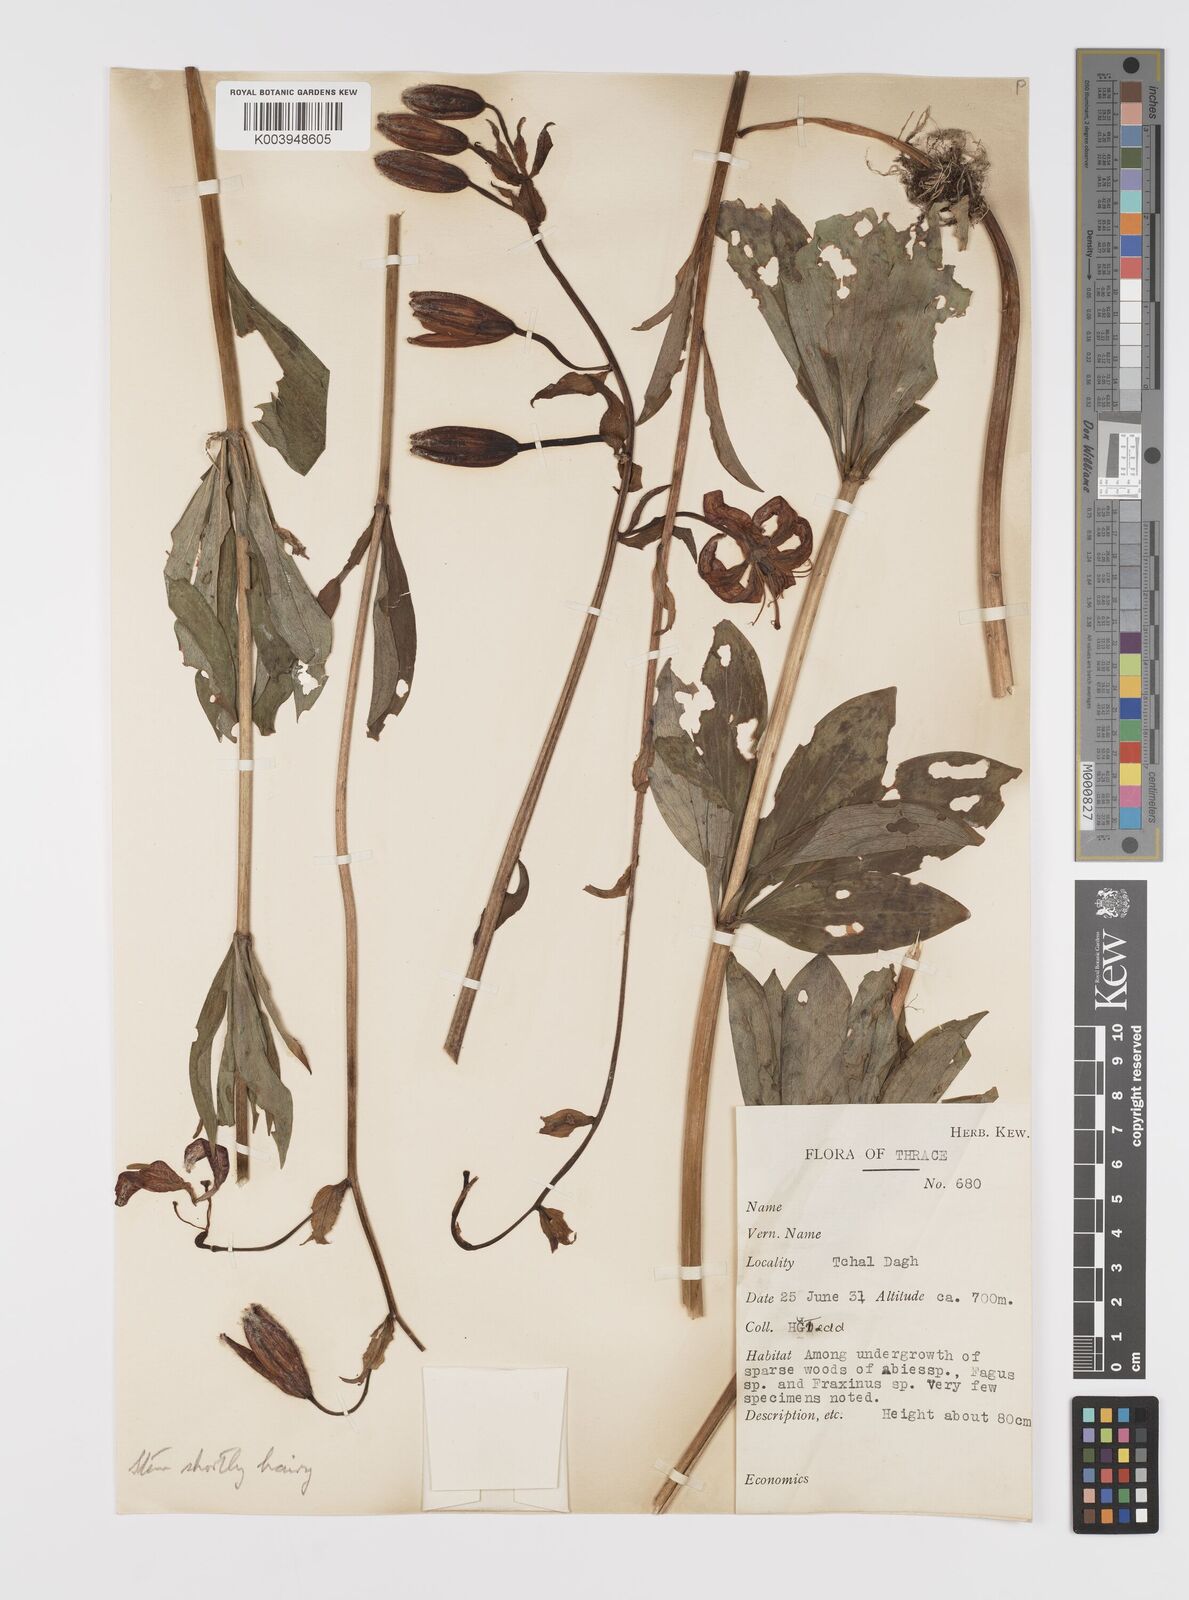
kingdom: Plantae
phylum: Tracheophyta
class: Liliopsida
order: Liliales
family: Liliaceae
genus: Lilium
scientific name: Lilium martagon
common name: Martagon lily
